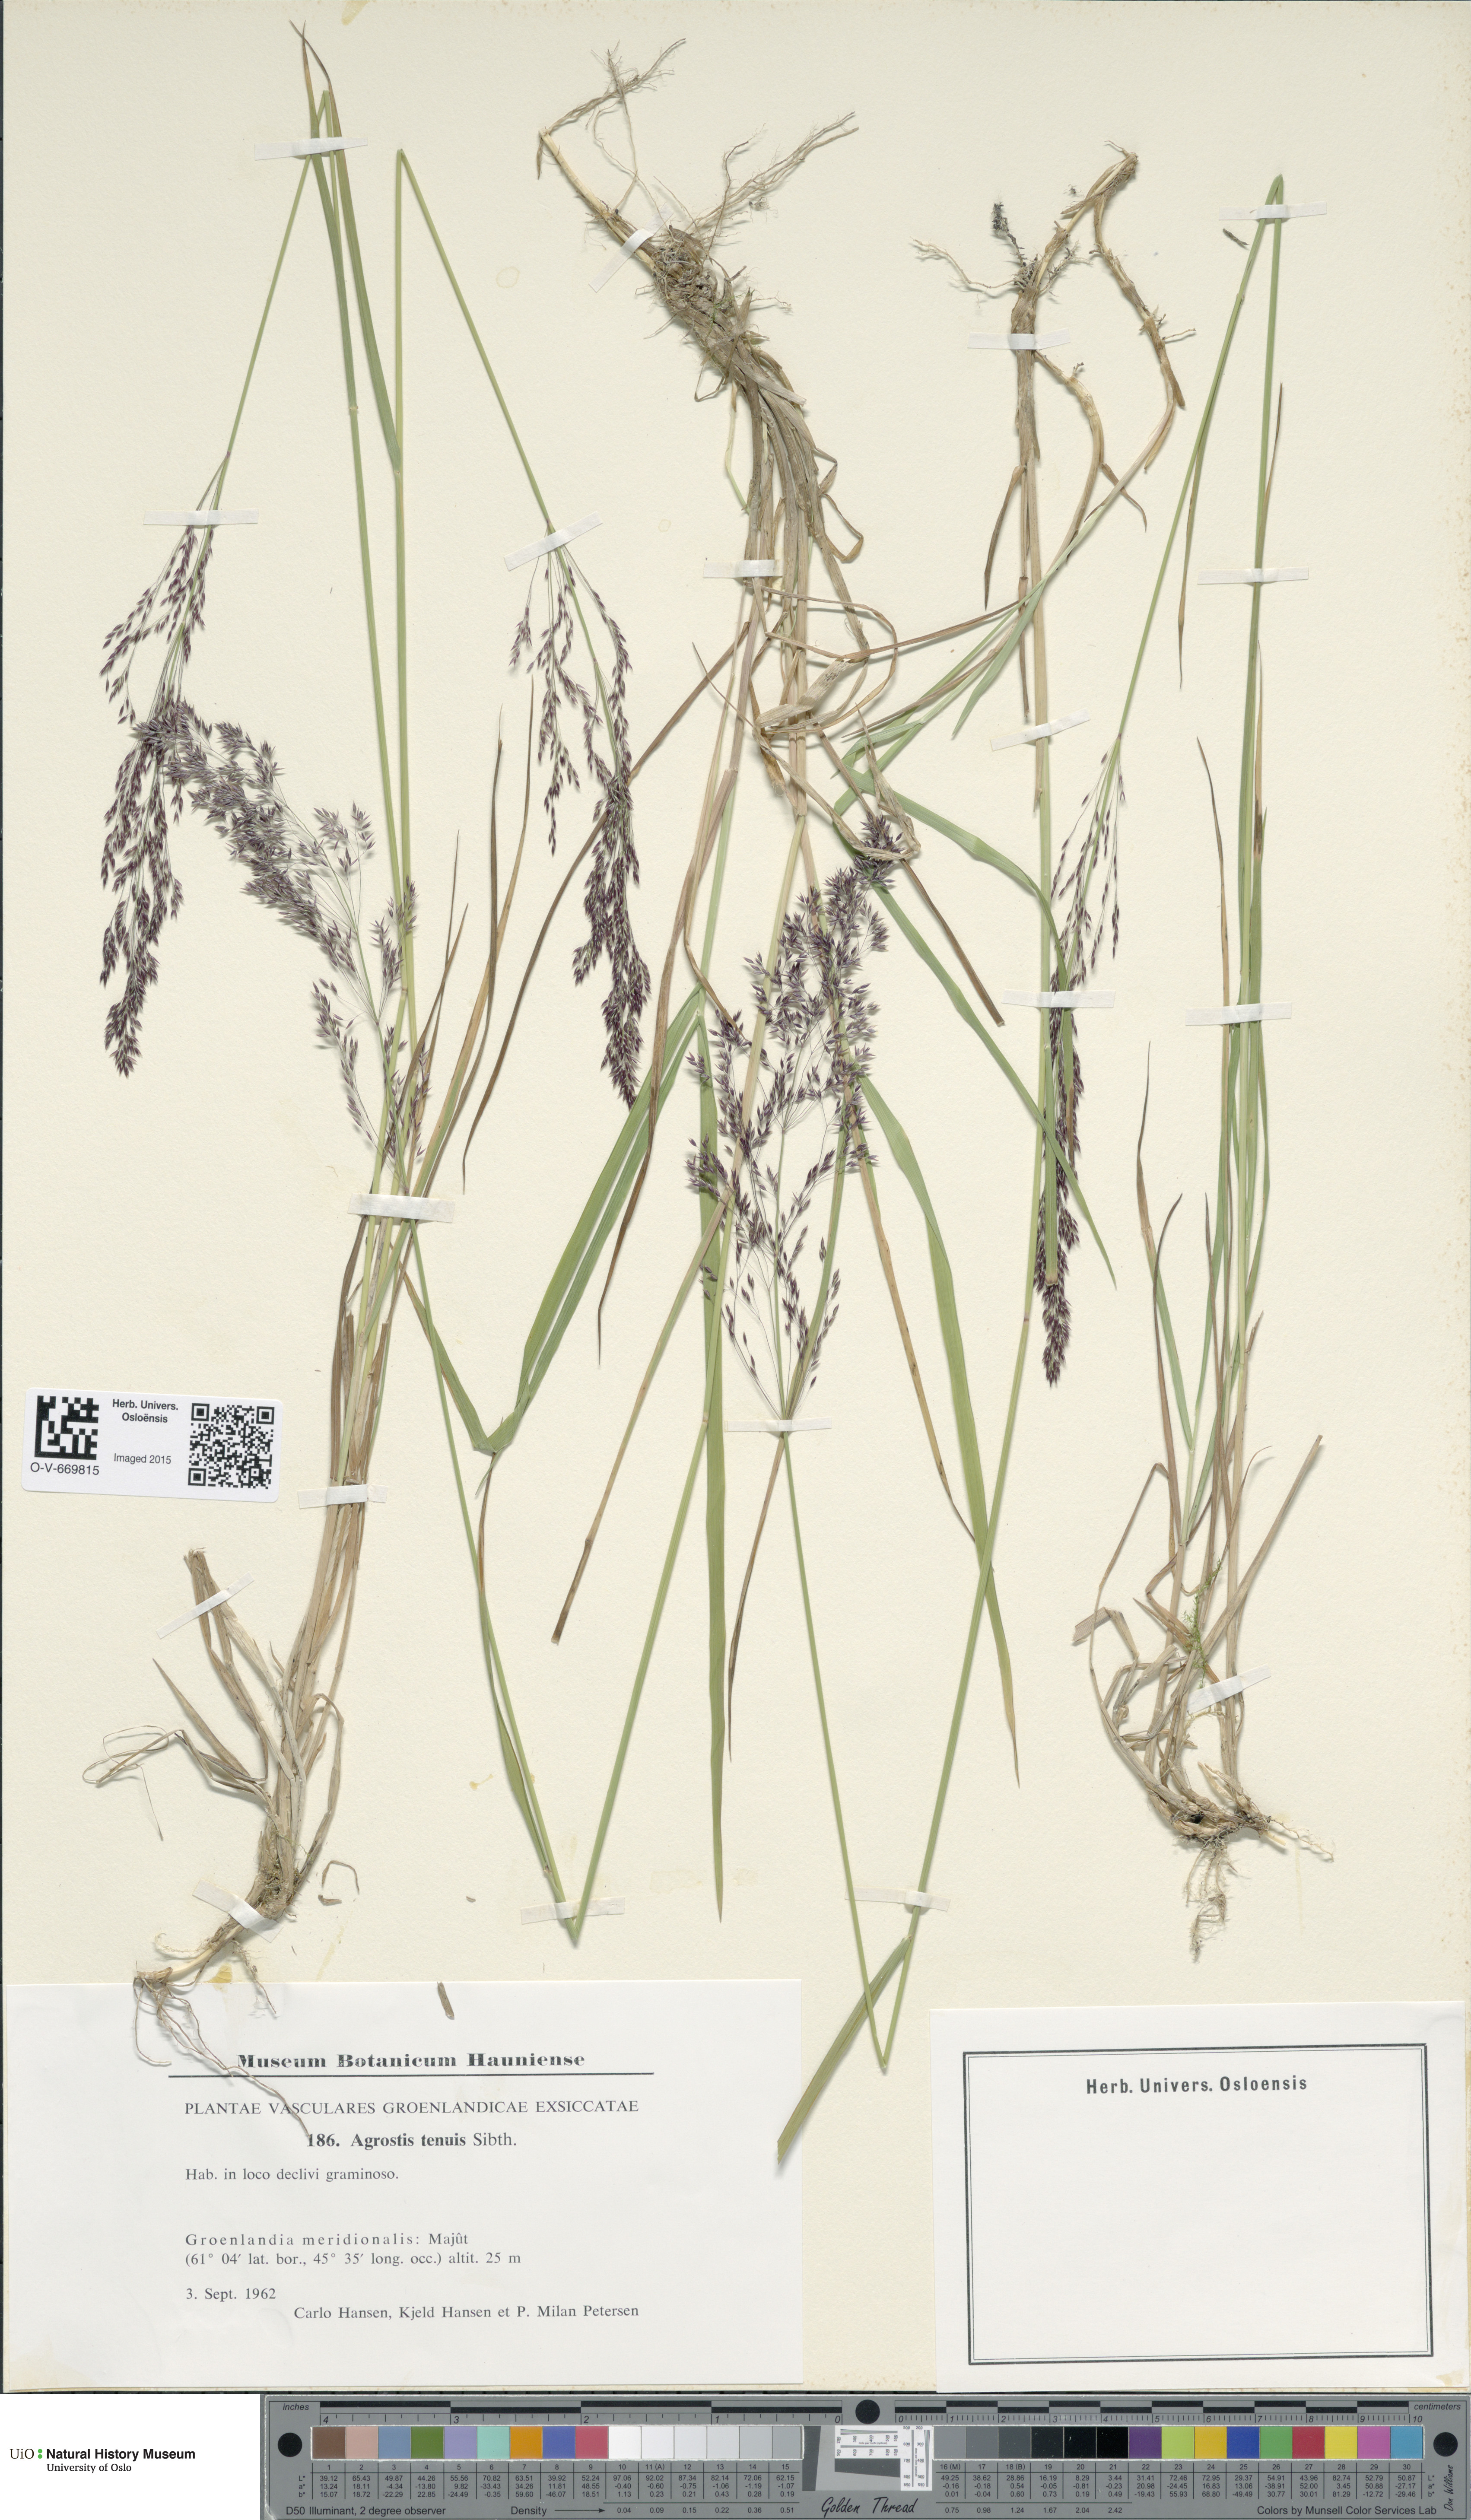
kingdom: Plantae
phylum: Tracheophyta
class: Liliopsida
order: Poales
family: Poaceae
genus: Agrostis
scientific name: Agrostis capillaris
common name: Colonial bentgrass
